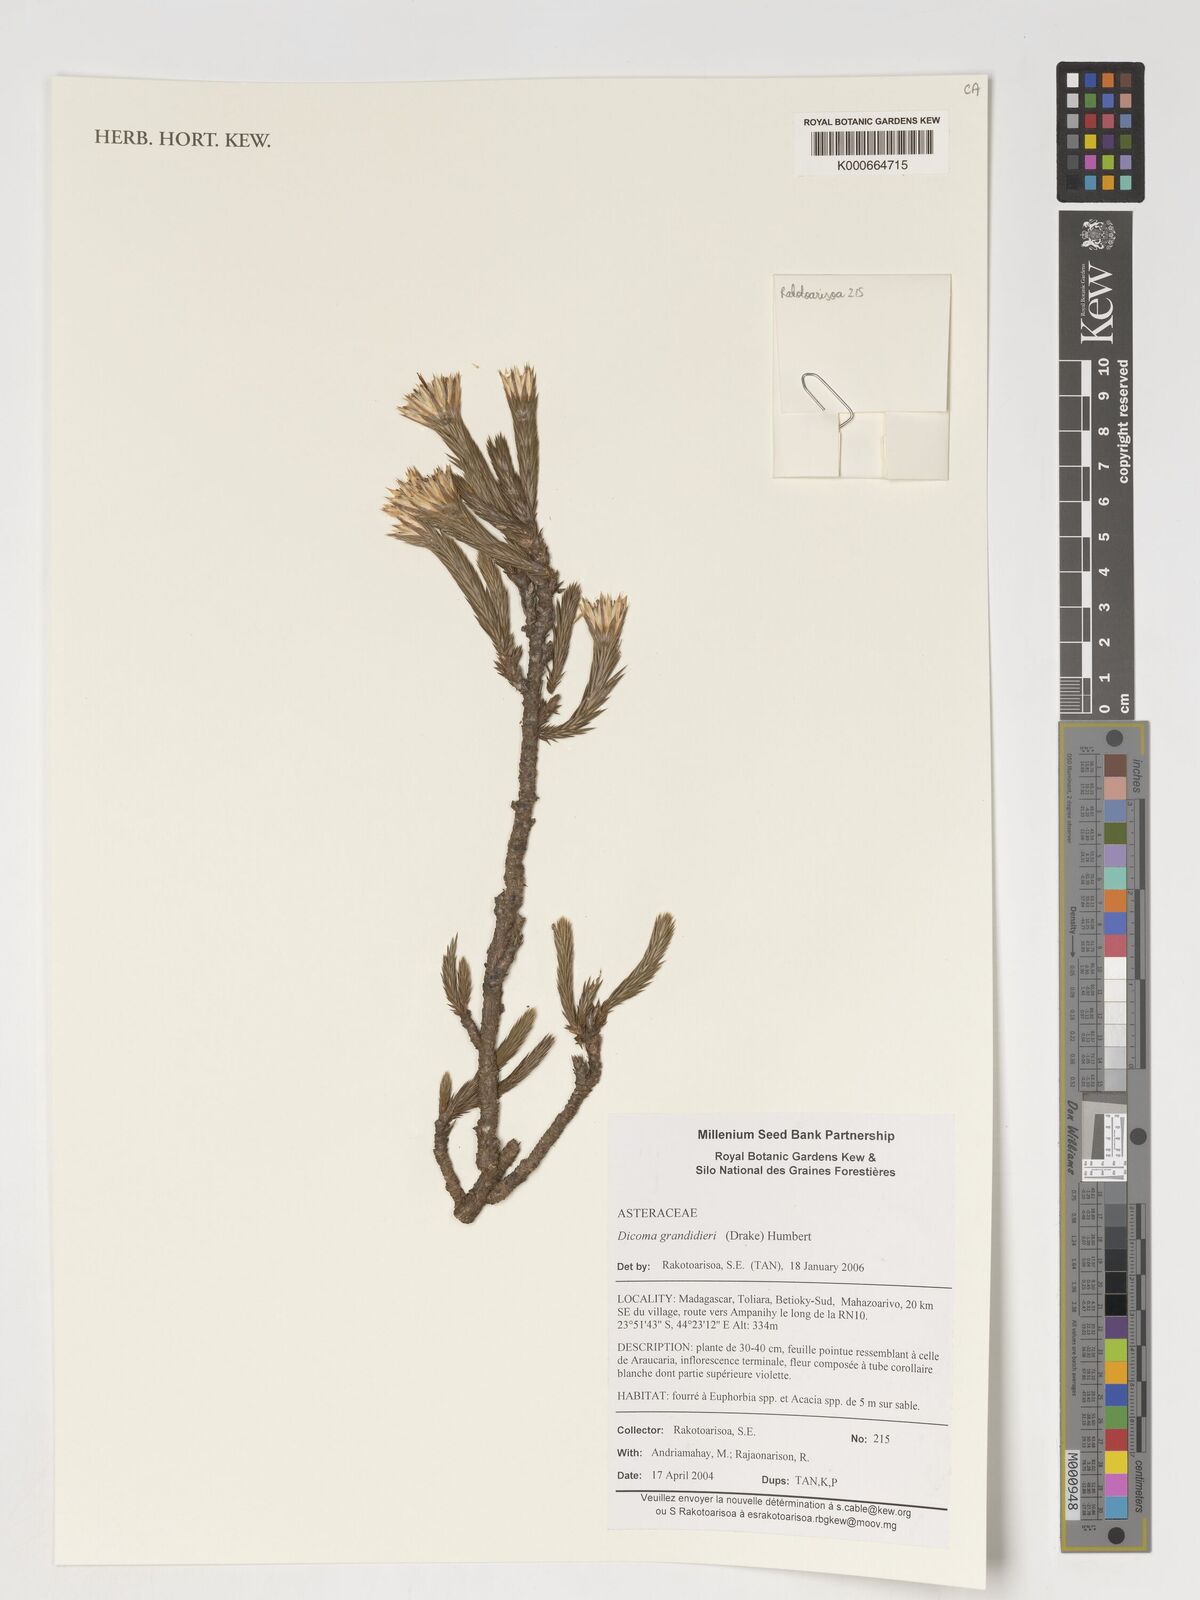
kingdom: Plantae
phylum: Tracheophyta
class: Magnoliopsida
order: Asterales
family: Asteraceae
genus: Macledium
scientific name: Macledium grandidieri
